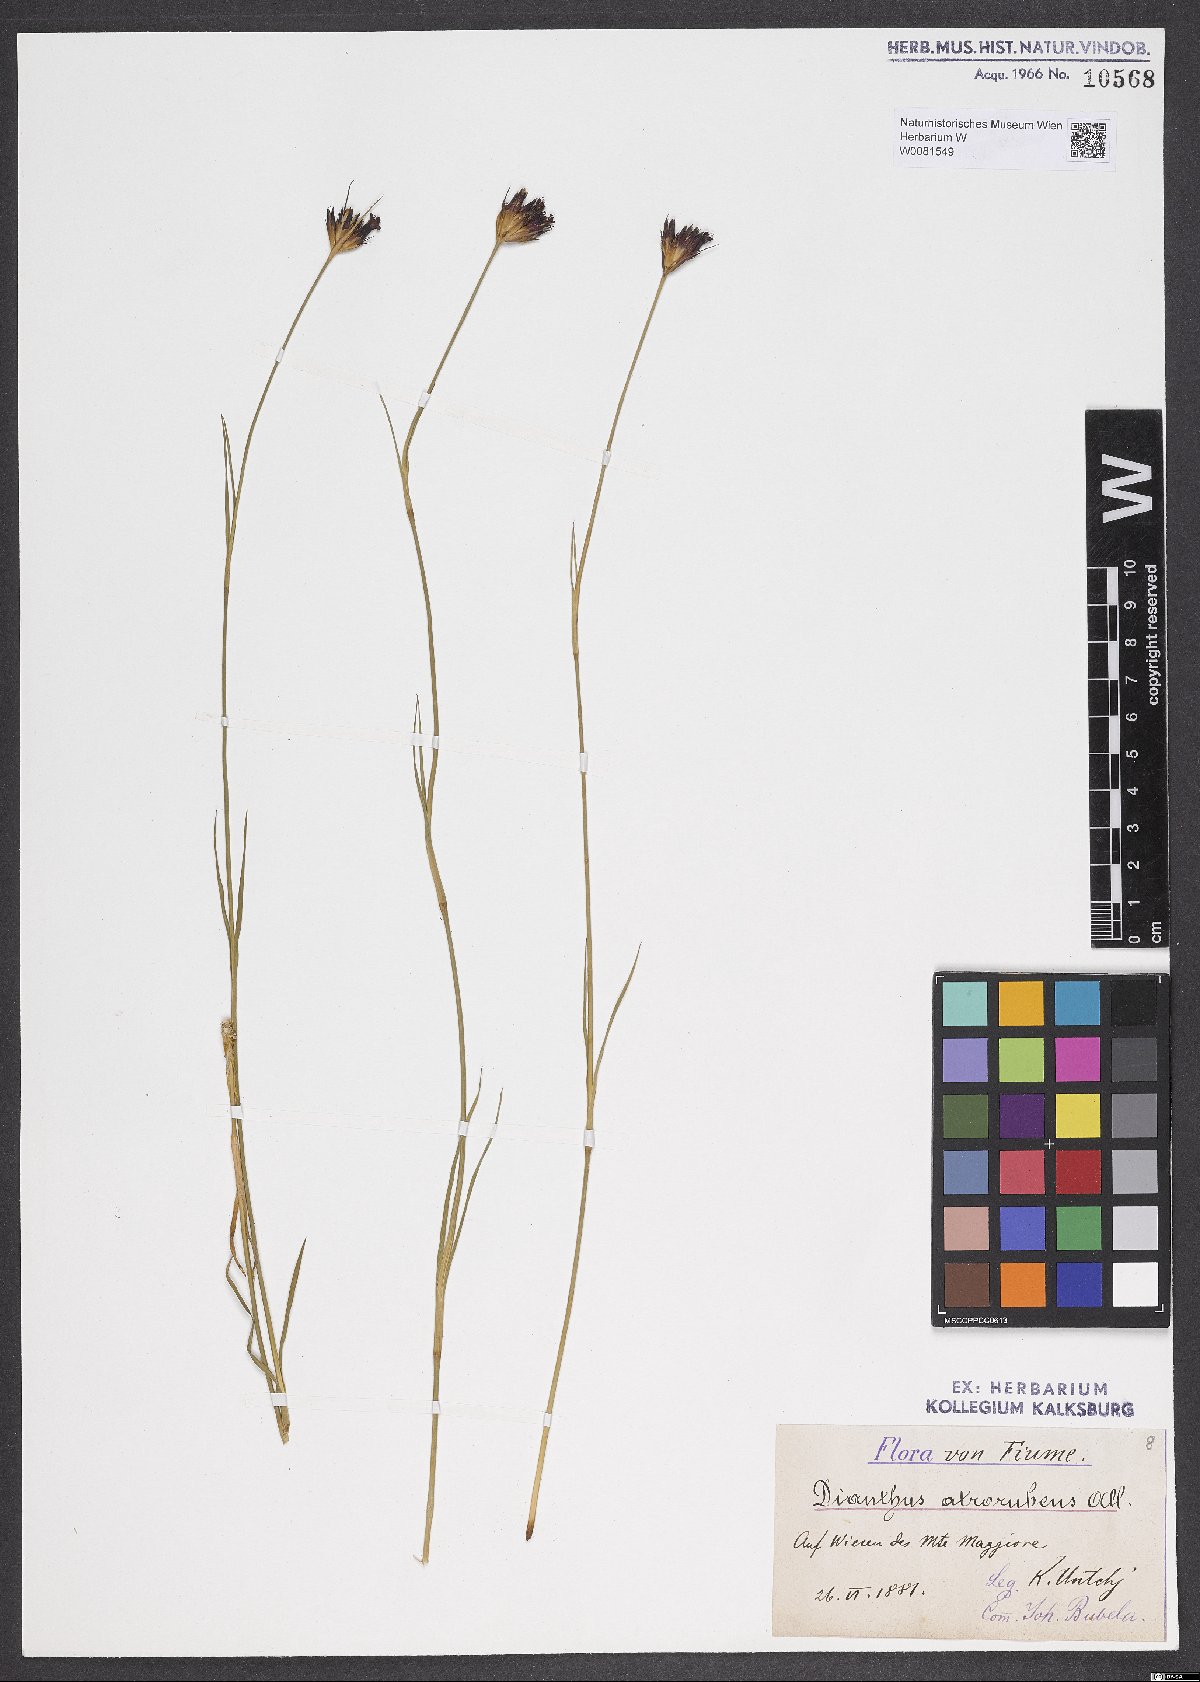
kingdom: Plantae
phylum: Tracheophyta
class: Magnoliopsida
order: Caryophyllales
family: Caryophyllaceae
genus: Dianthus
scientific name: Dianthus carthusianorum
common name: Carthusian pink
